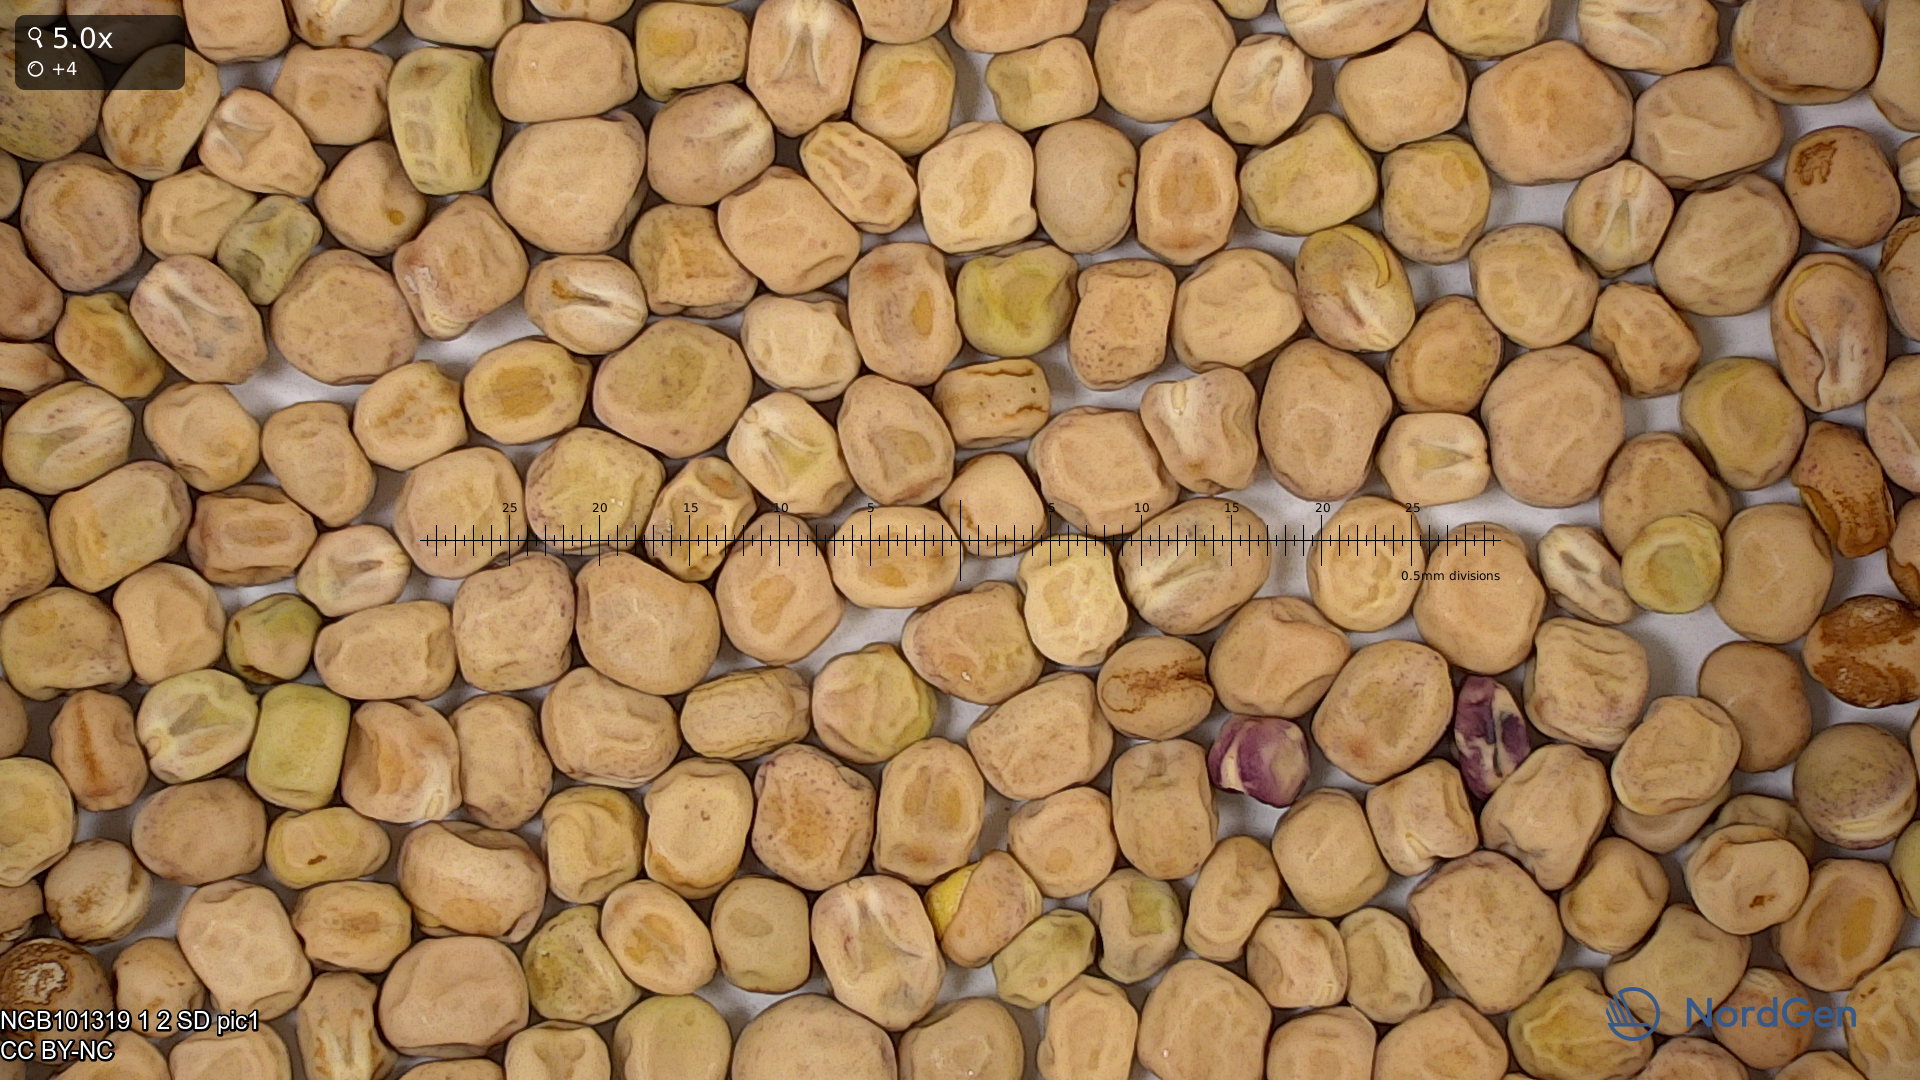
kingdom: Plantae
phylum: Tracheophyta
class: Magnoliopsida
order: Fabales
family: Fabaceae
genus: Lathyrus
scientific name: Lathyrus oleraceus
